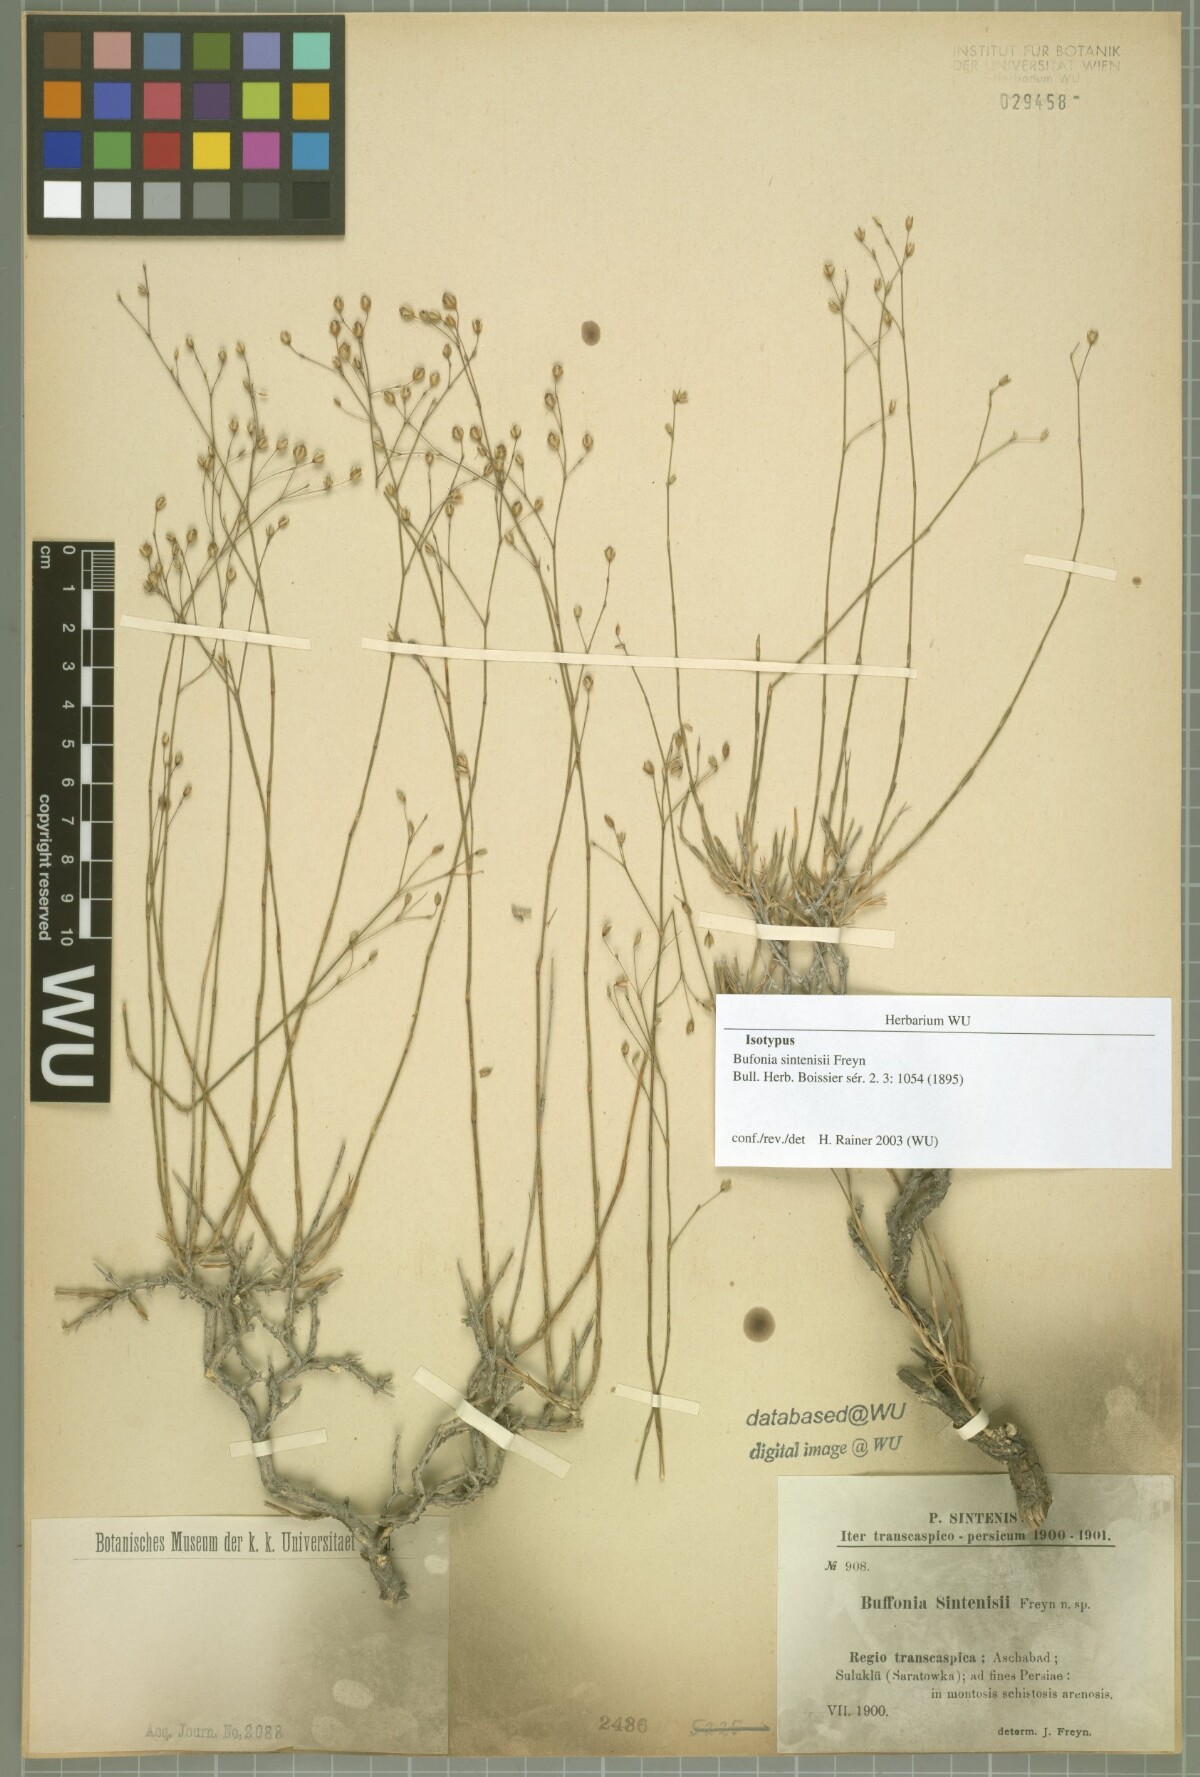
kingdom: Plantae
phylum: Tracheophyta
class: Magnoliopsida
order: Caryophyllales
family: Caryophyllaceae
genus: Bufonia
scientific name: Bufonia sintenisii
